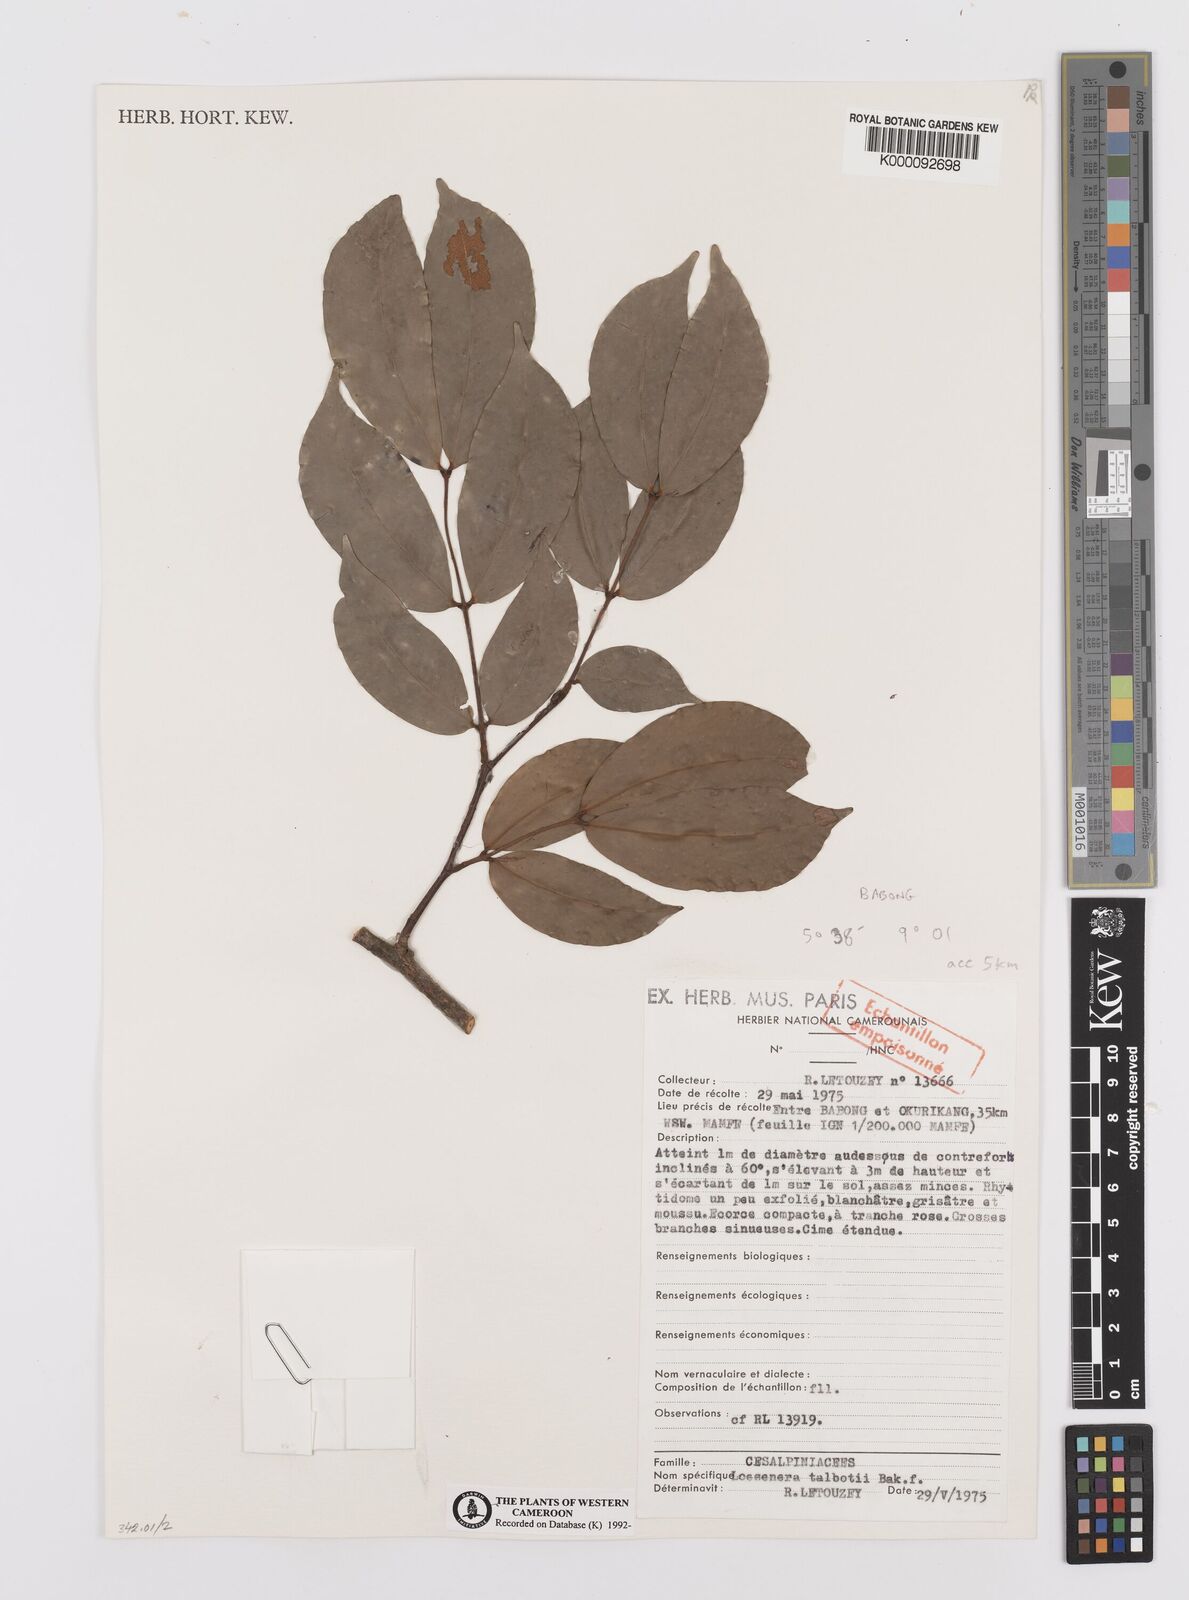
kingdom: Plantae
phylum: Tracheophyta
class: Magnoliopsida
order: Fabales
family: Fabaceae
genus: Loesenera
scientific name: Loesenera talbotii
